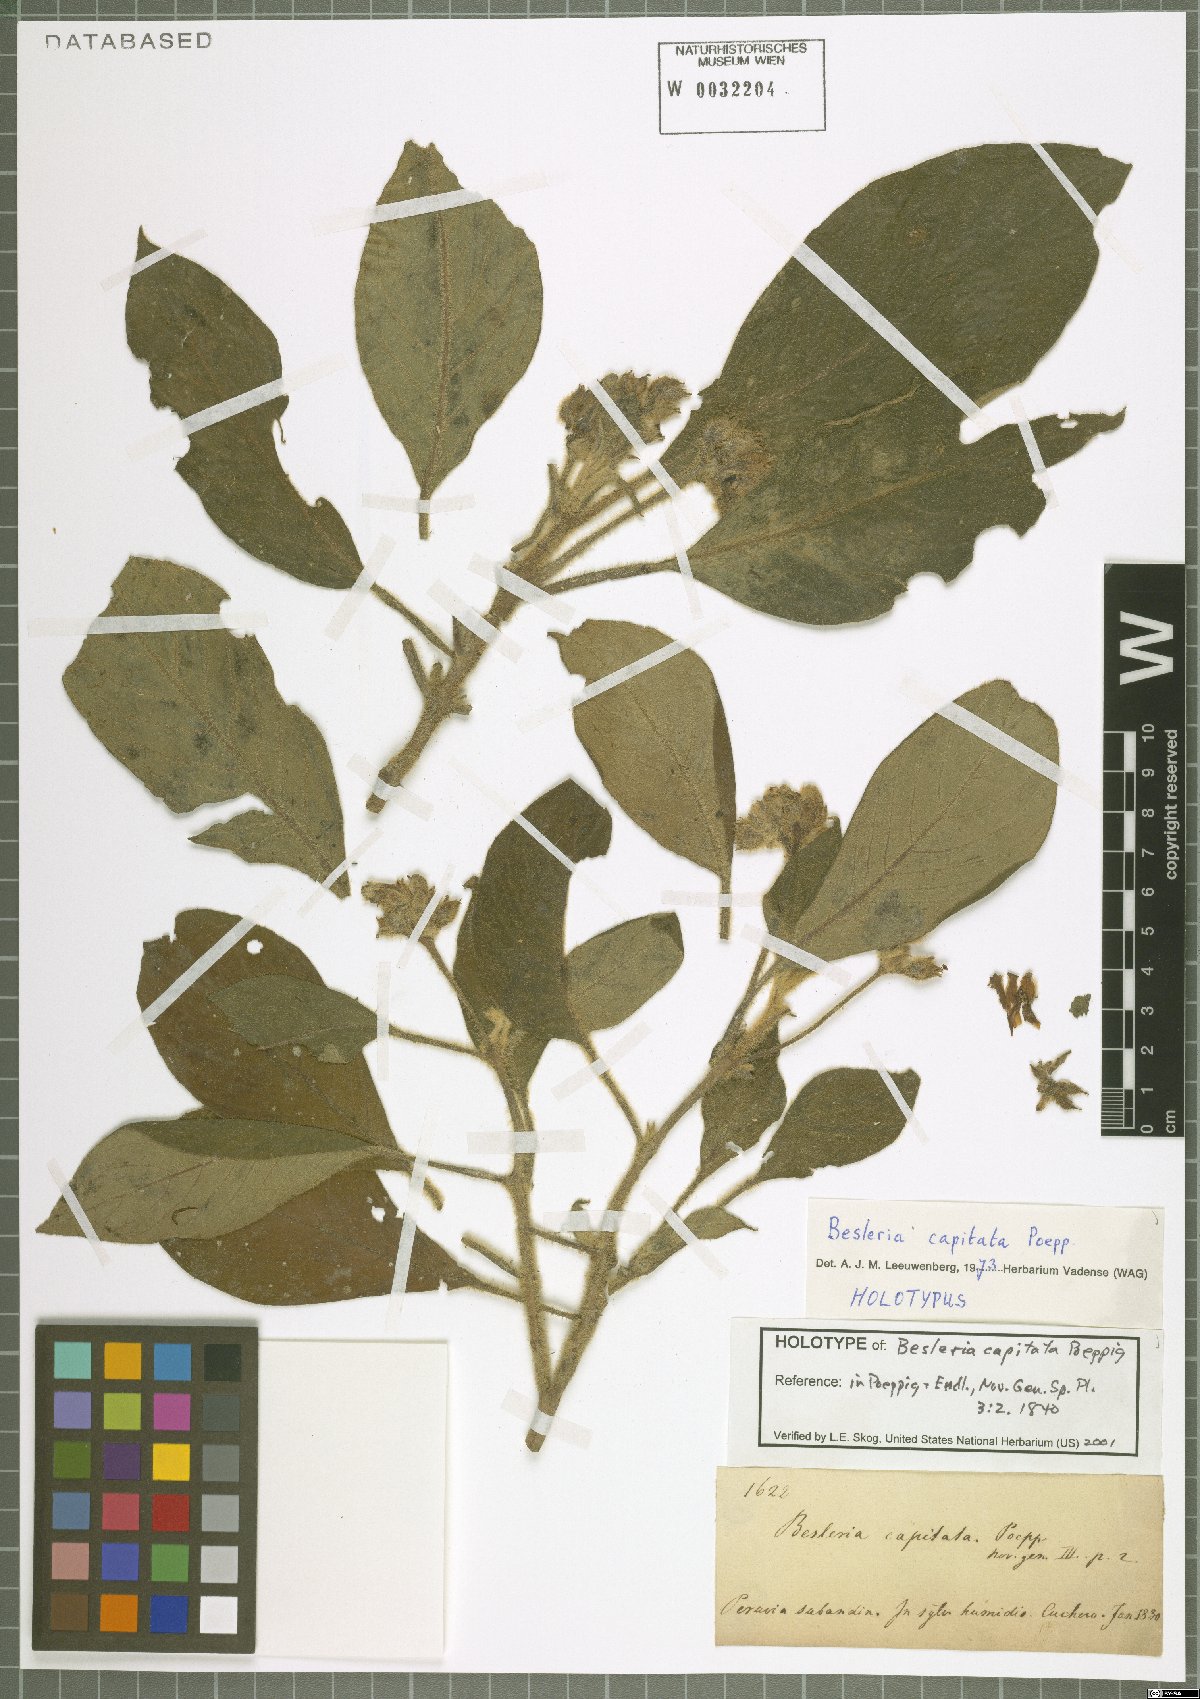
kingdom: Plantae
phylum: Tracheophyta
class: Magnoliopsida
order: Lamiales
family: Gesneriaceae
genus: Besleria
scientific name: Besleria capitata
